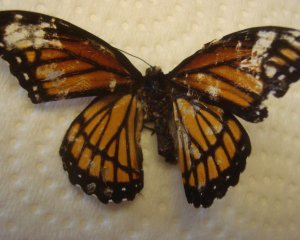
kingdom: Animalia
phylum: Arthropoda
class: Insecta
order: Lepidoptera
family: Nymphalidae
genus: Limenitis
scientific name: Limenitis archippus
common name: Viceroy
